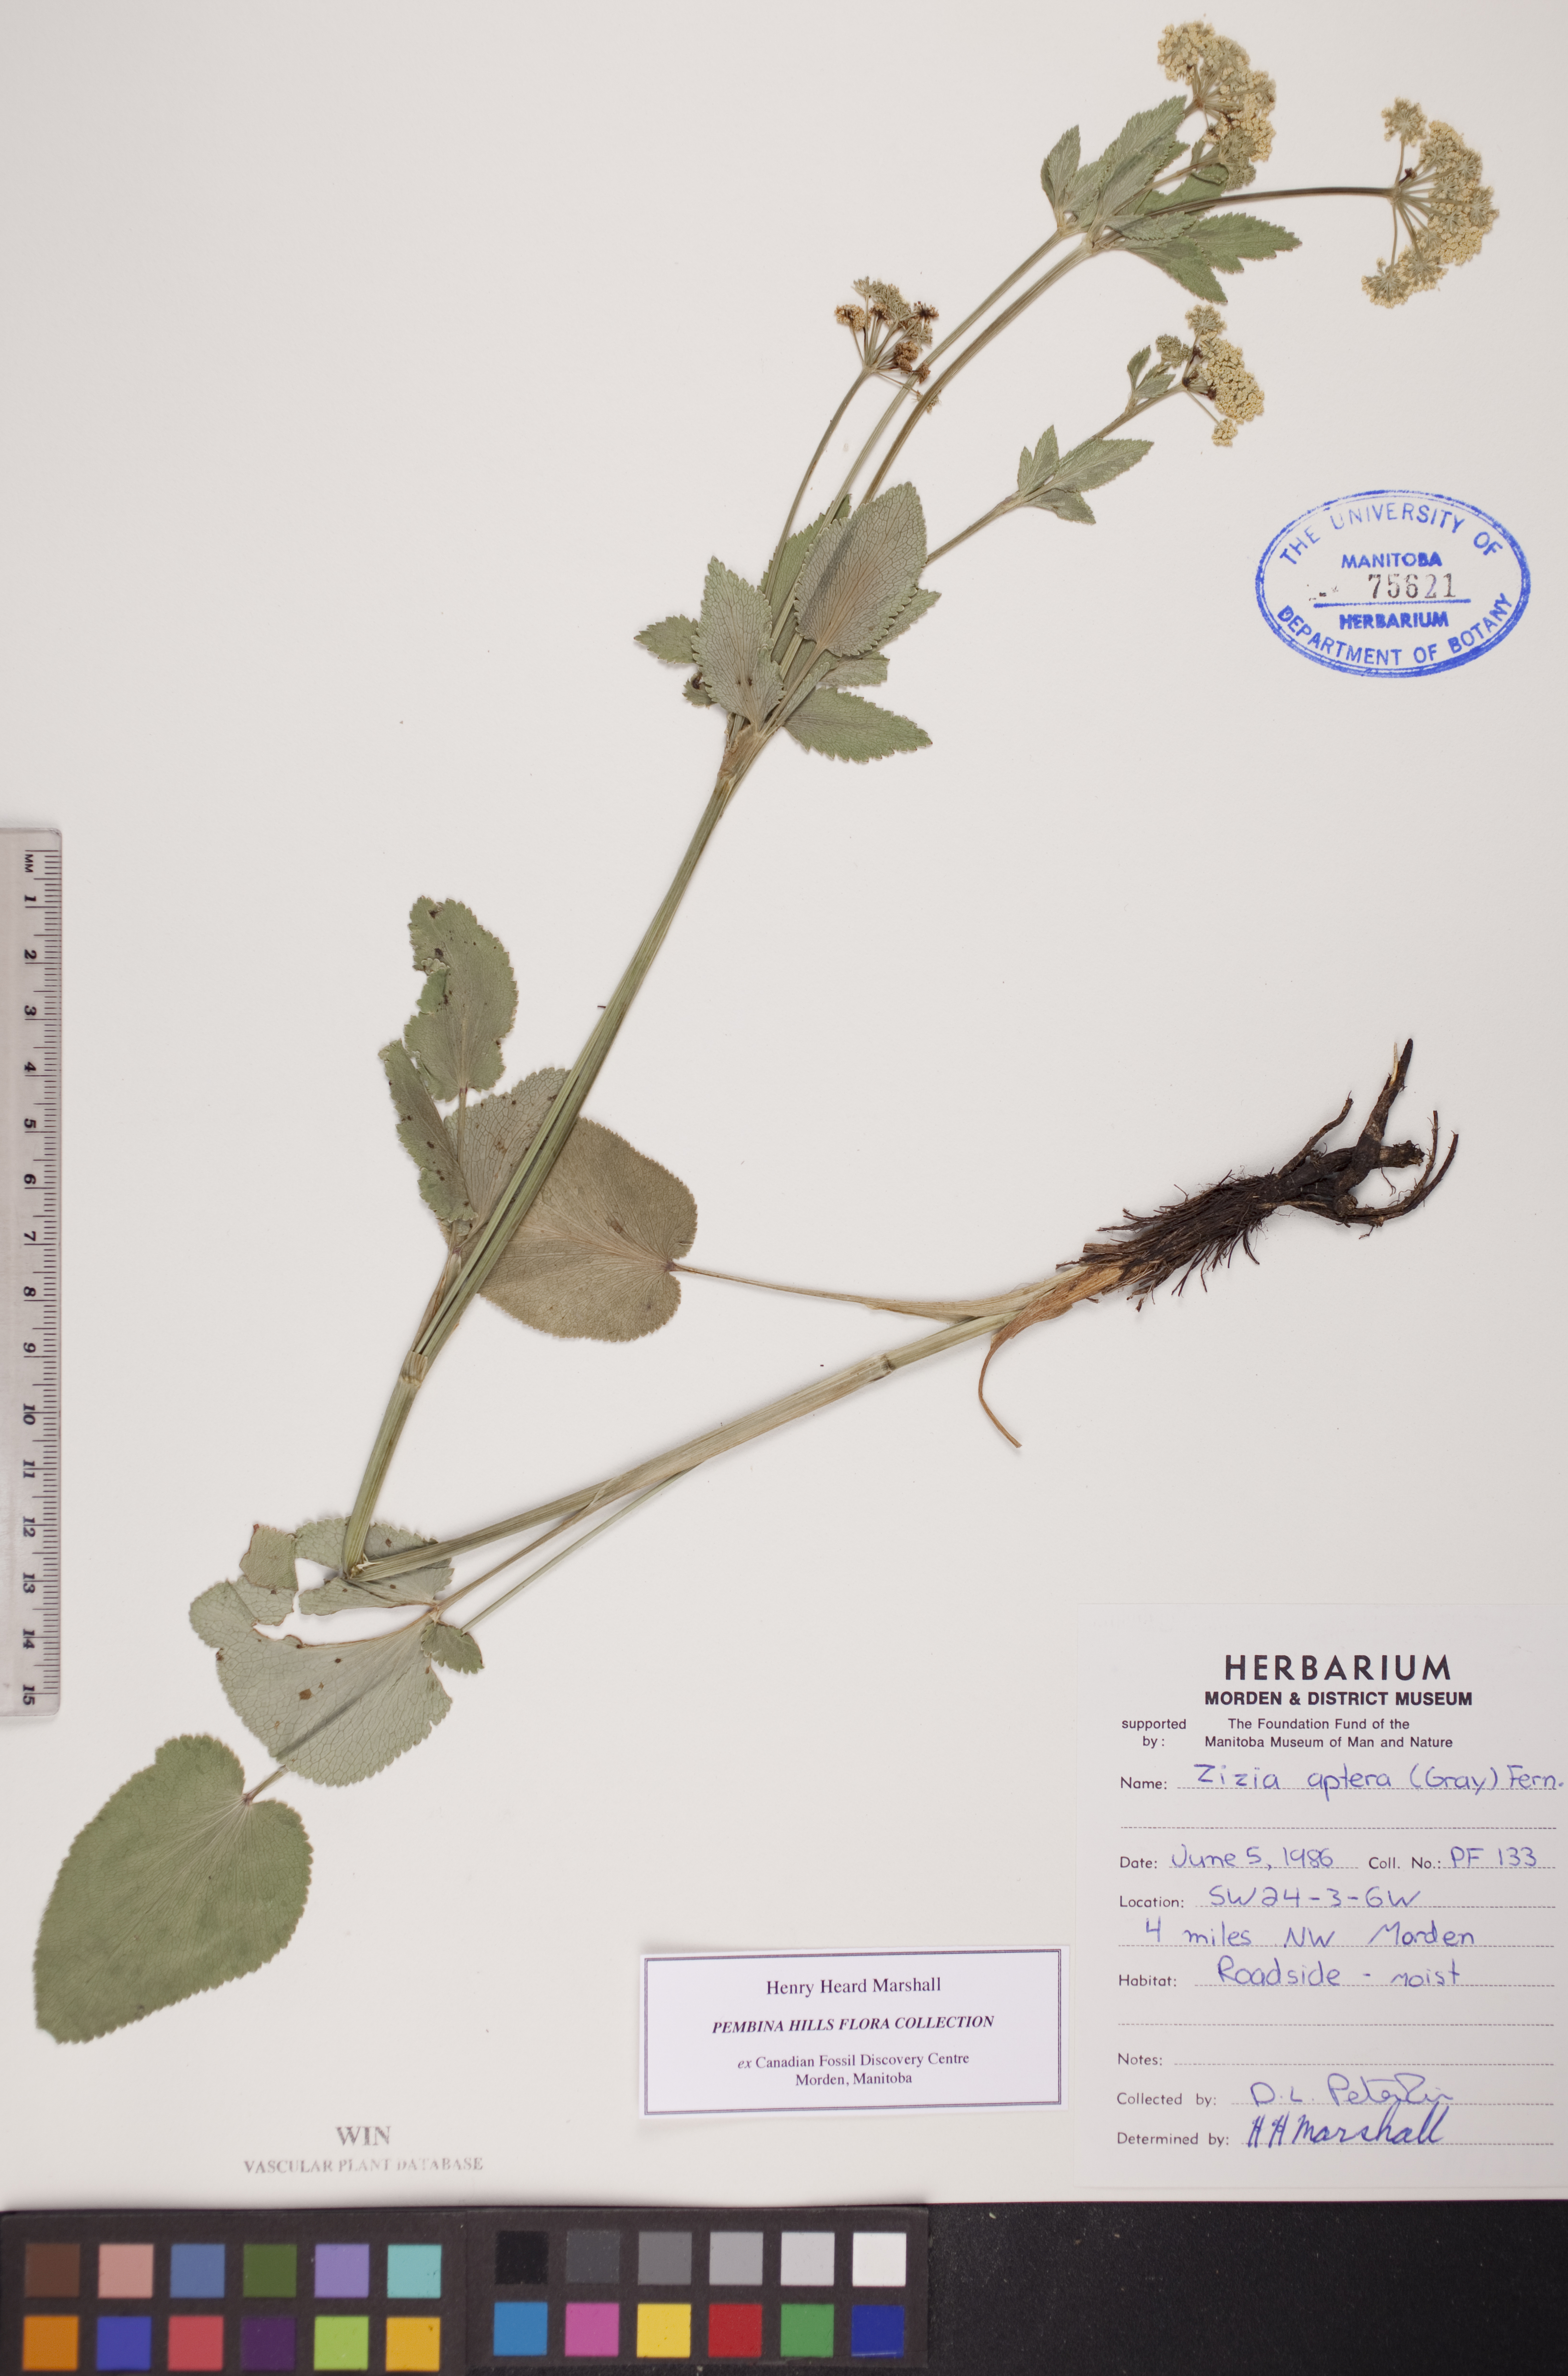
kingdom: Plantae
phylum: Tracheophyta
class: Magnoliopsida
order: Apiales
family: Apiaceae
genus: Zizia
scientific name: Zizia aptera
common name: Heart-leaved alexanders
